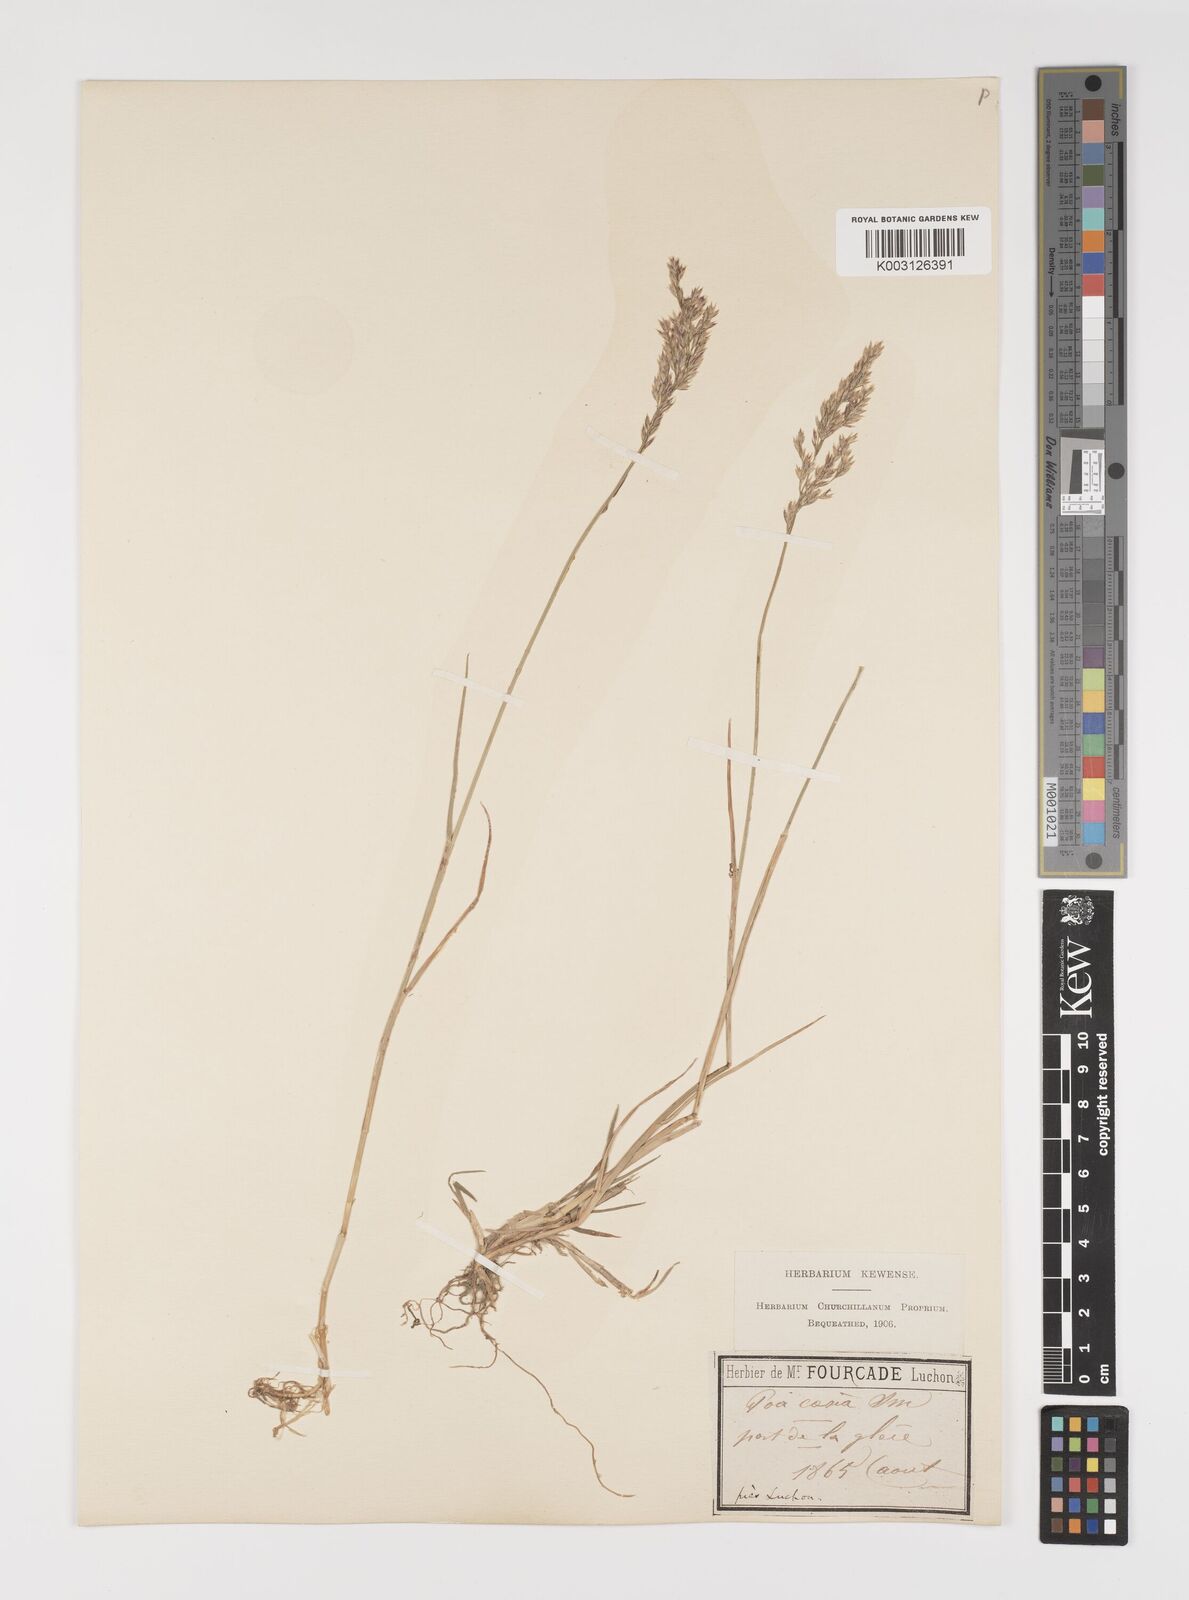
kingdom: Plantae
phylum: Tracheophyta
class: Liliopsida
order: Poales
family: Poaceae
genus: Poa
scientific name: Poa glauca
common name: Glaucous bluegrass
